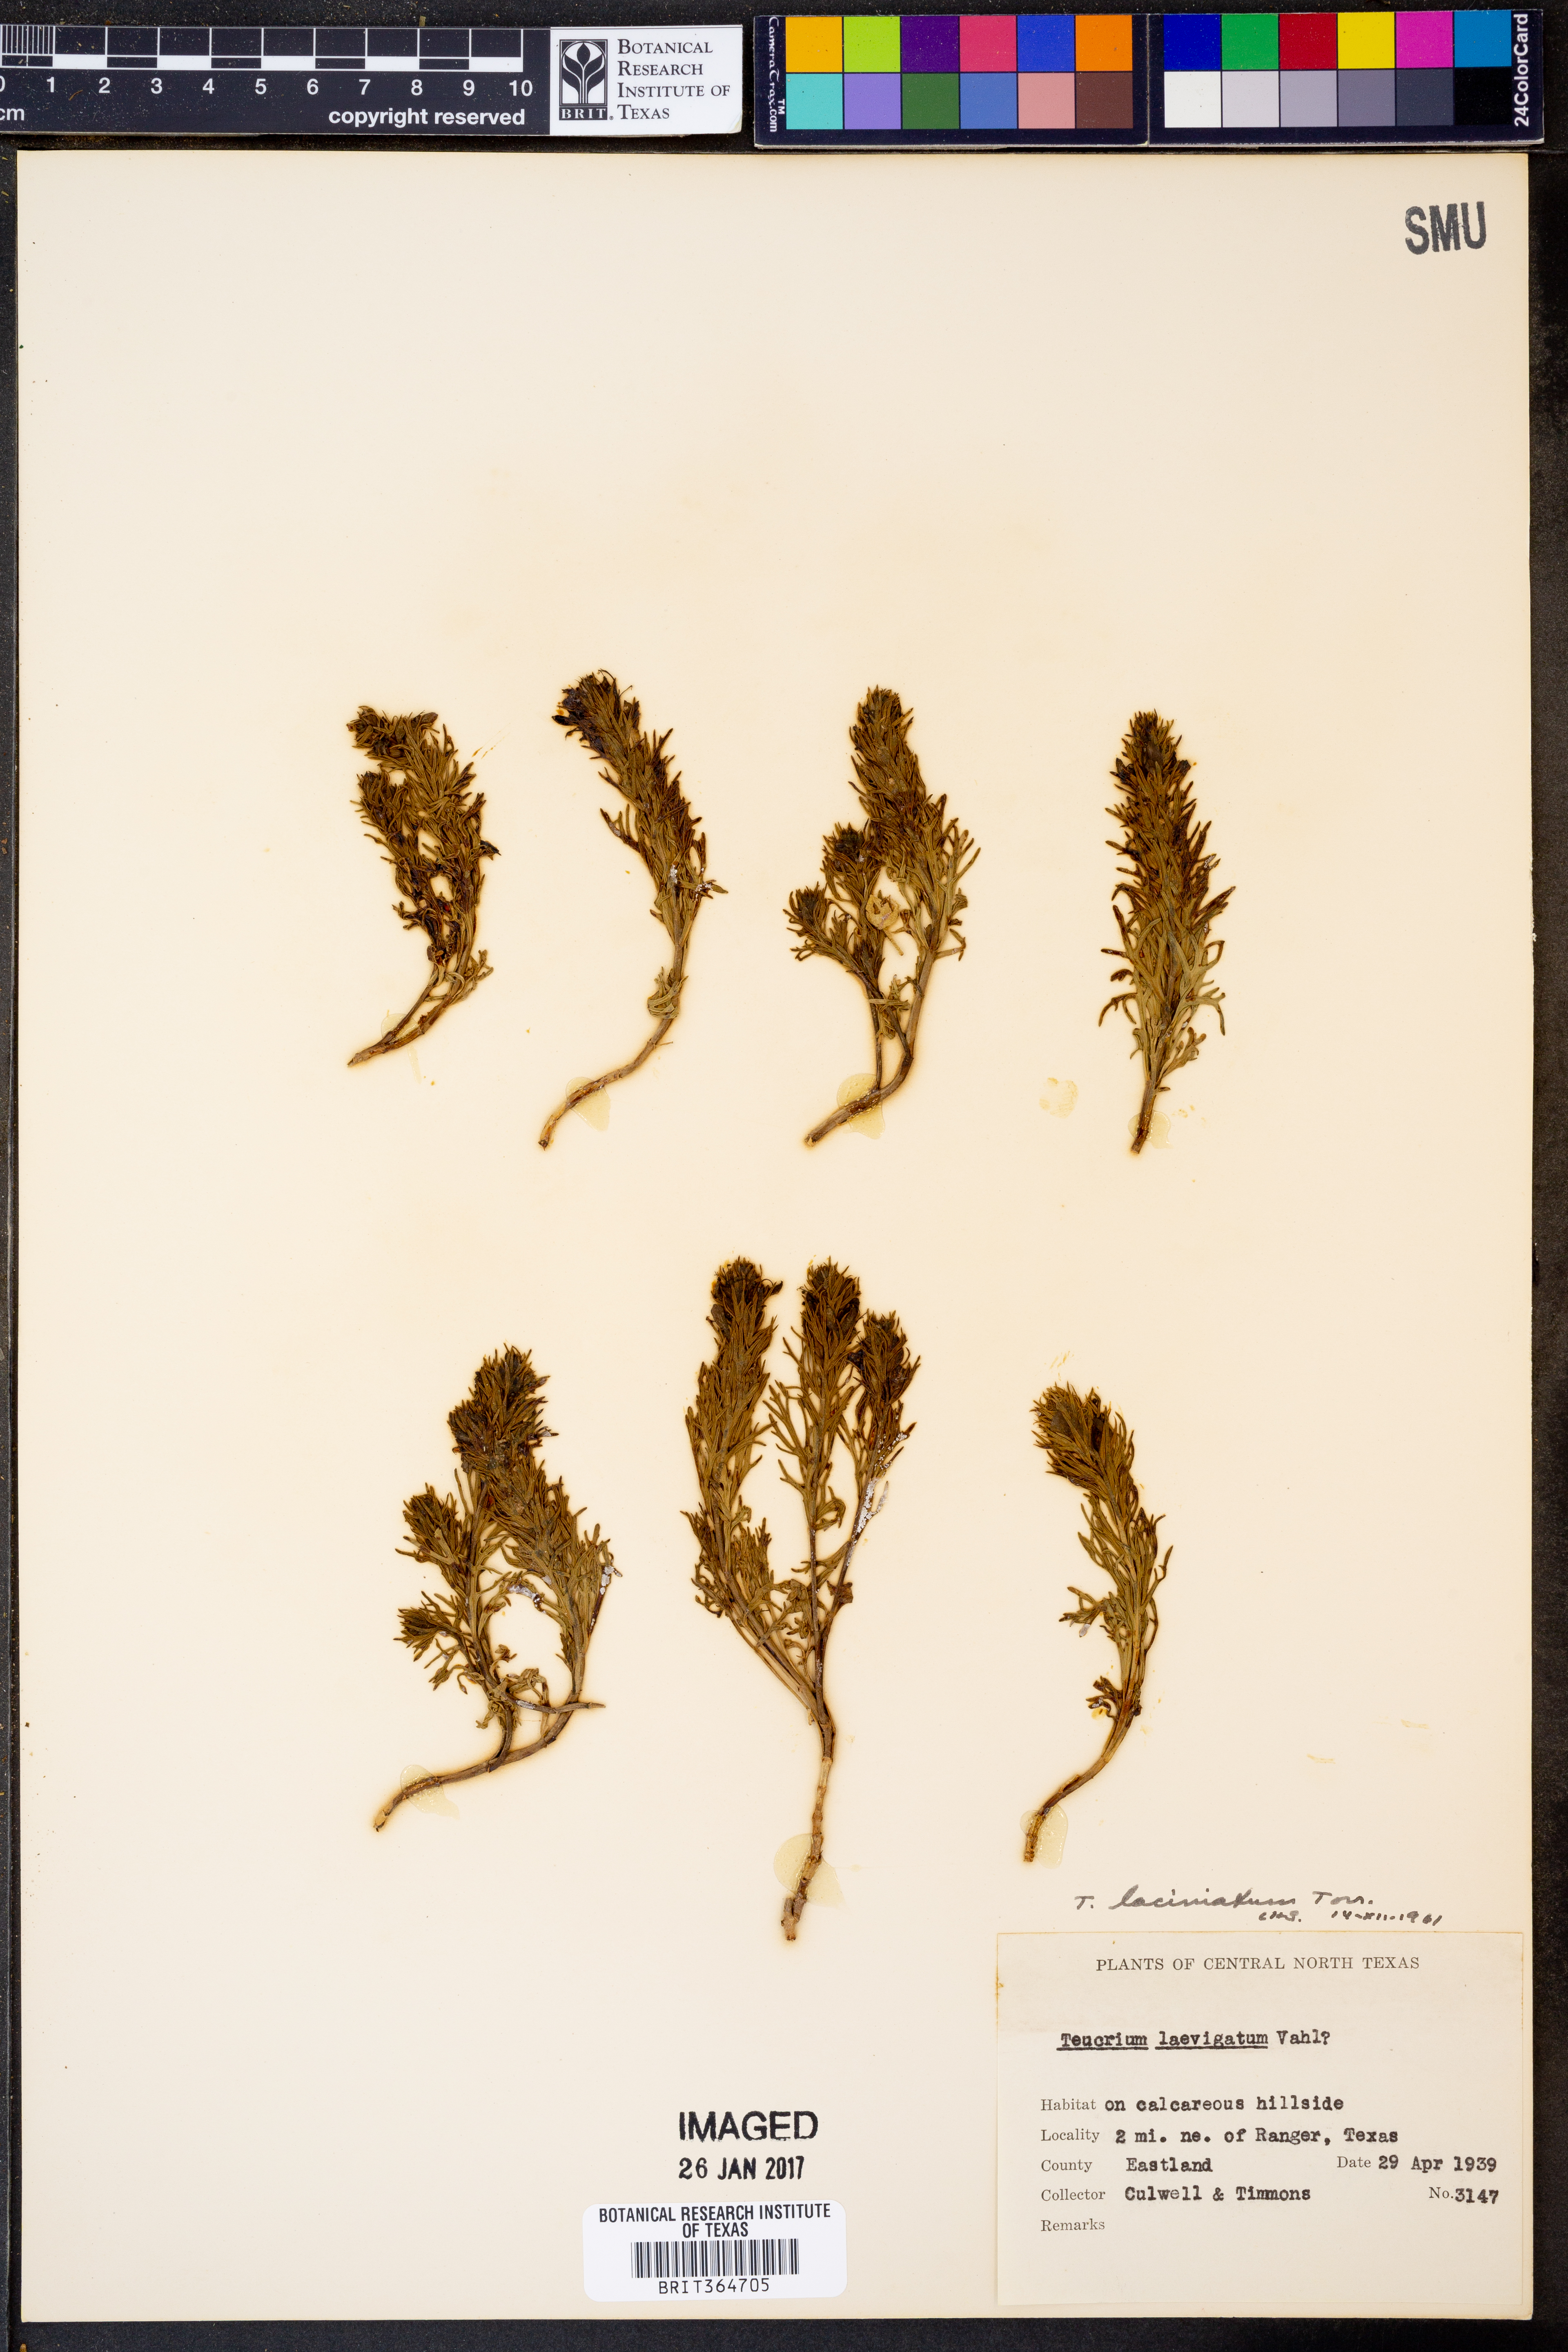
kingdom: Plantae
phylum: Tracheophyta
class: Magnoliopsida
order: Lamiales
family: Lamiaceae
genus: Teucrium
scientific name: Teucrium laciniatum
